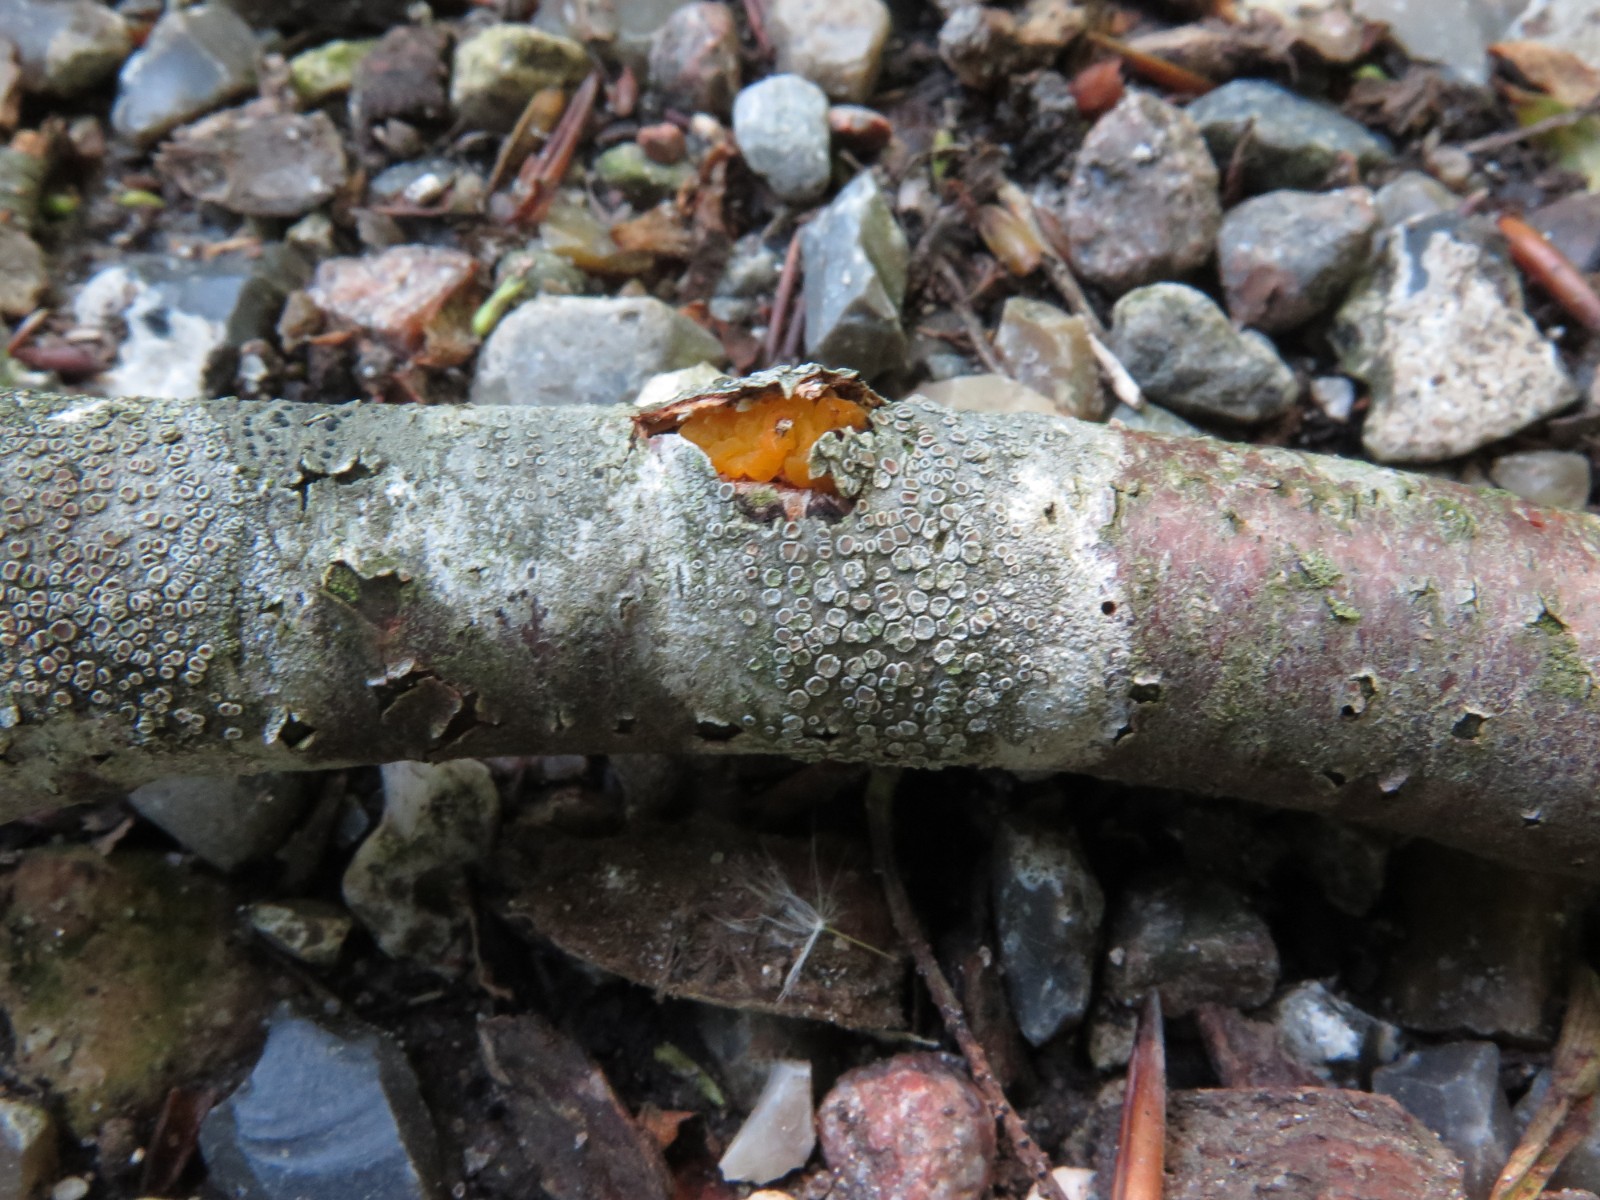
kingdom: Fungi
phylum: Basidiomycota
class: Tremellomycetes
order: Tremellales
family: Tremellaceae
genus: Tremella
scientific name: Tremella mesenterica
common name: gul bævresvamp
